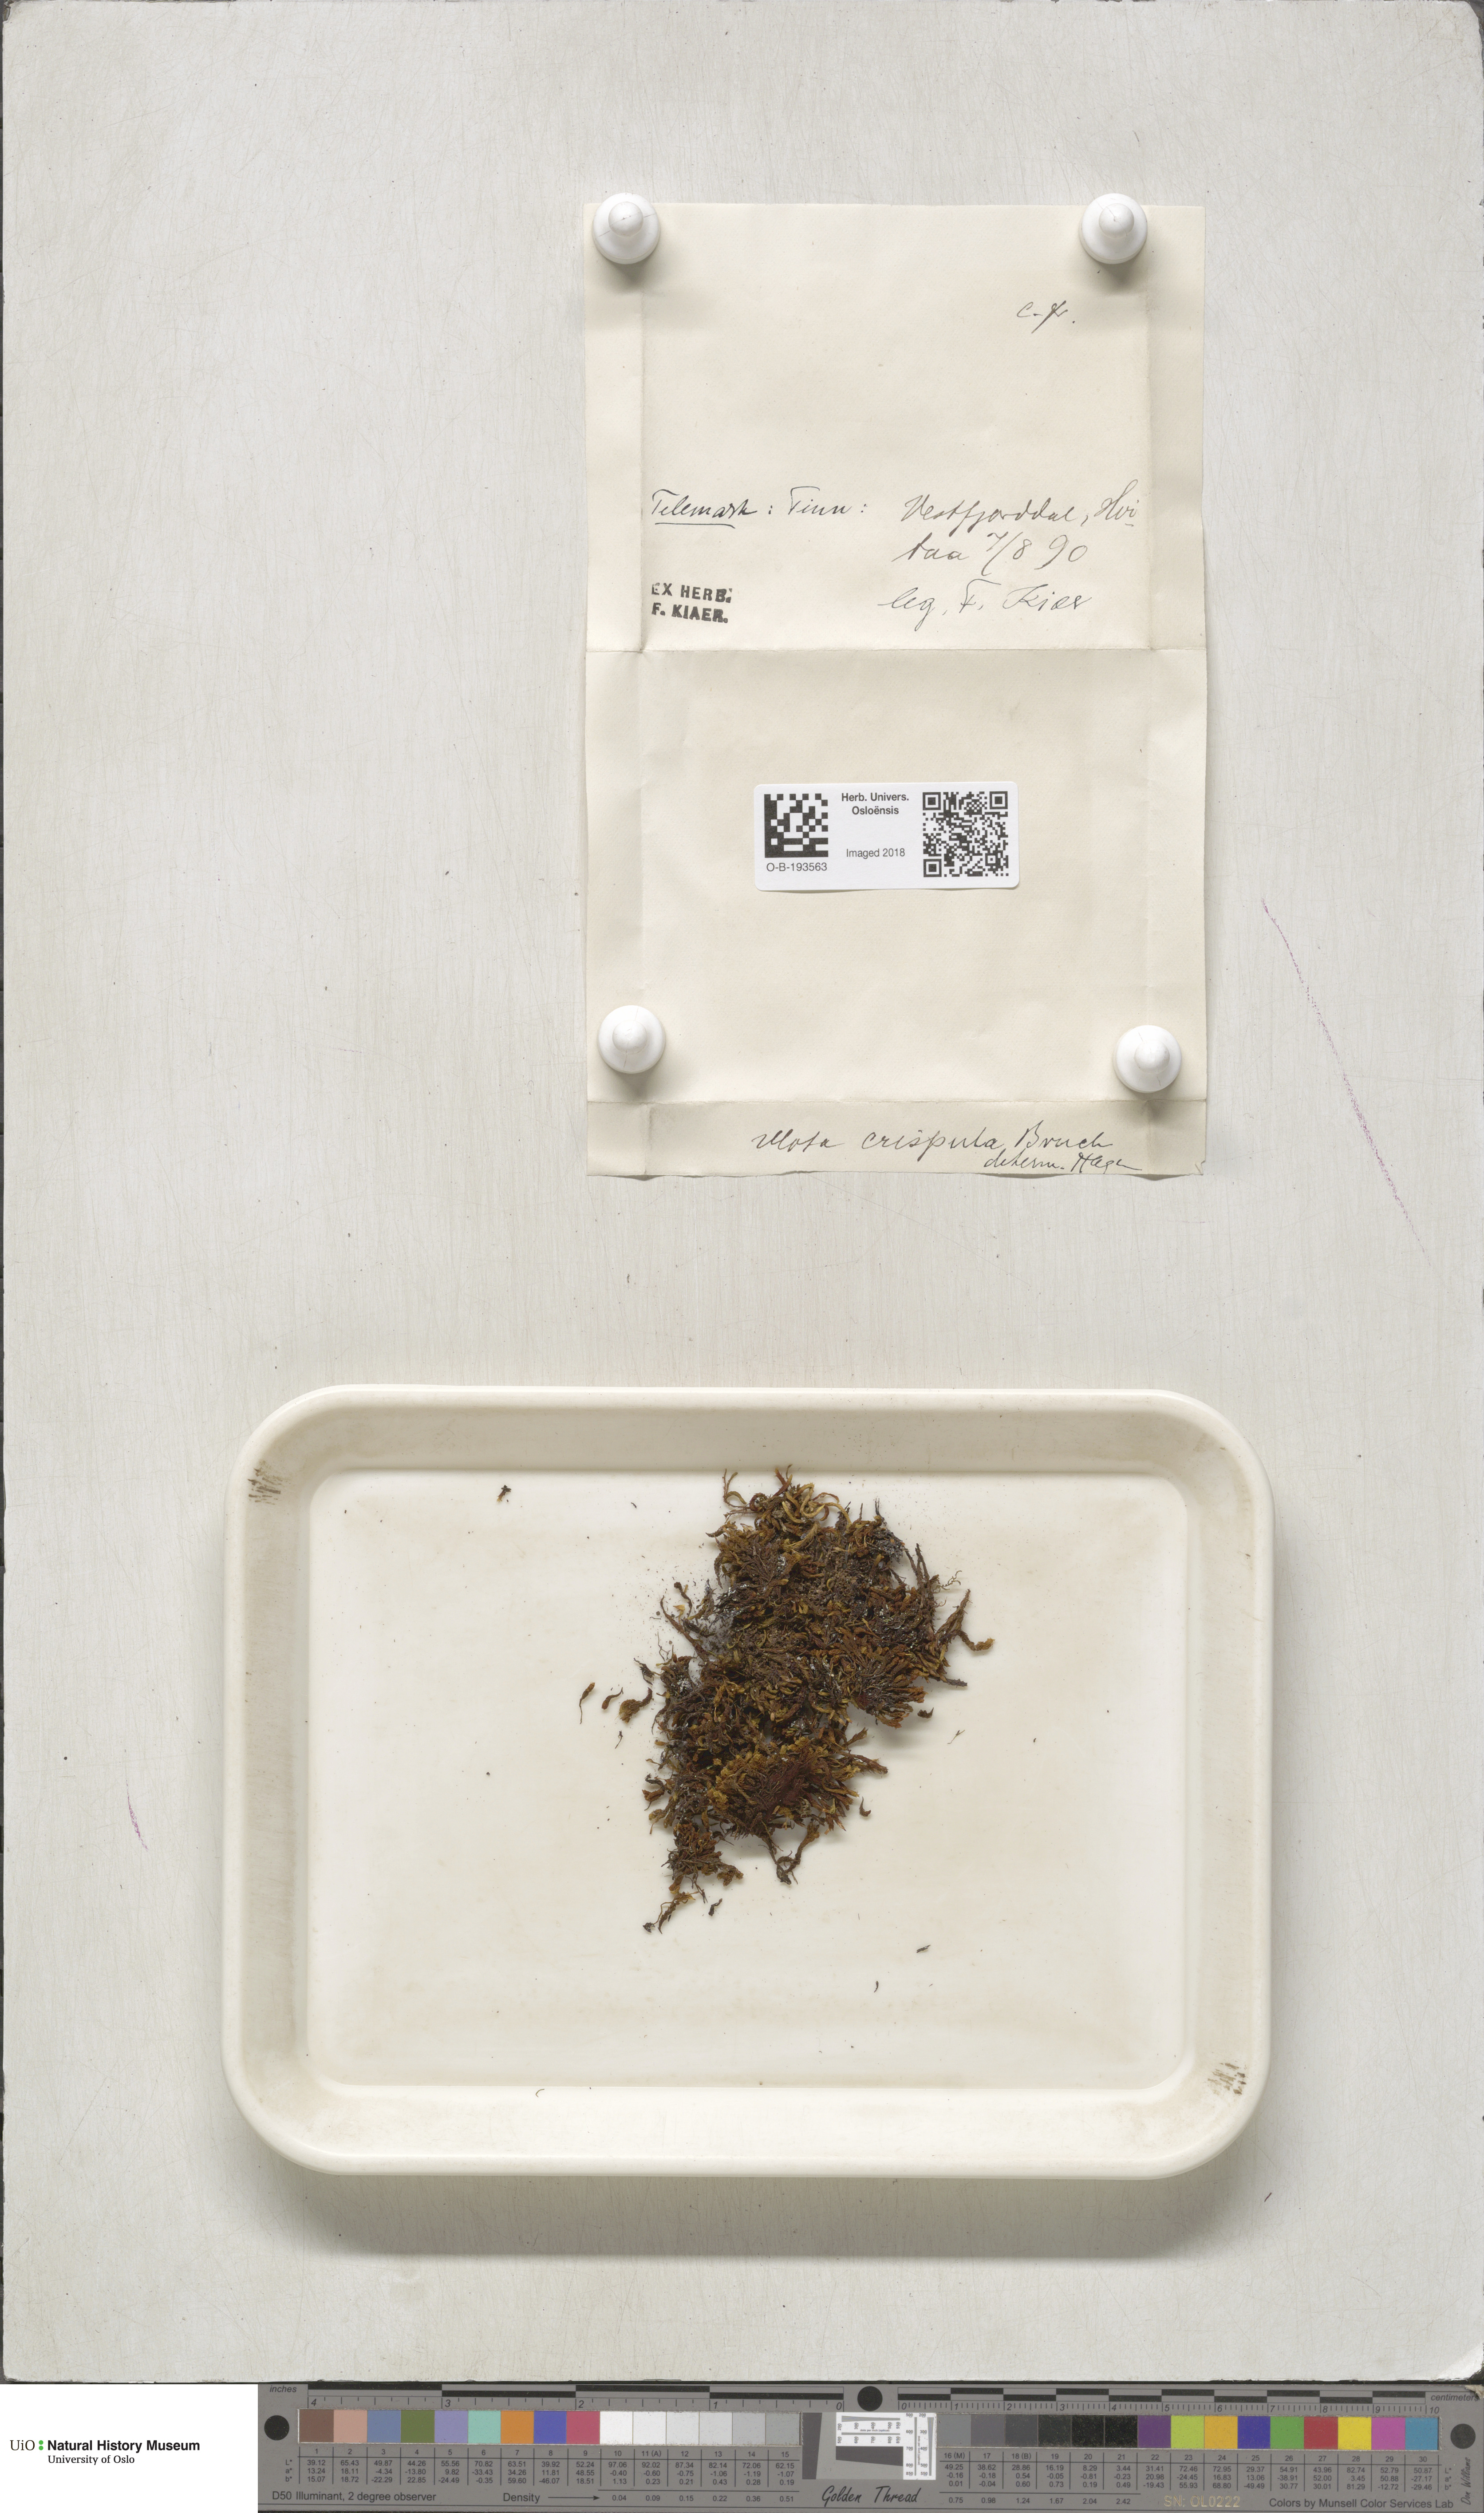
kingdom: Plantae
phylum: Bryophyta
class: Bryopsida
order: Orthotrichales
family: Orthotrichaceae
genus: Ulota
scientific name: Ulota crispa
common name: Crisped pincushion moss
